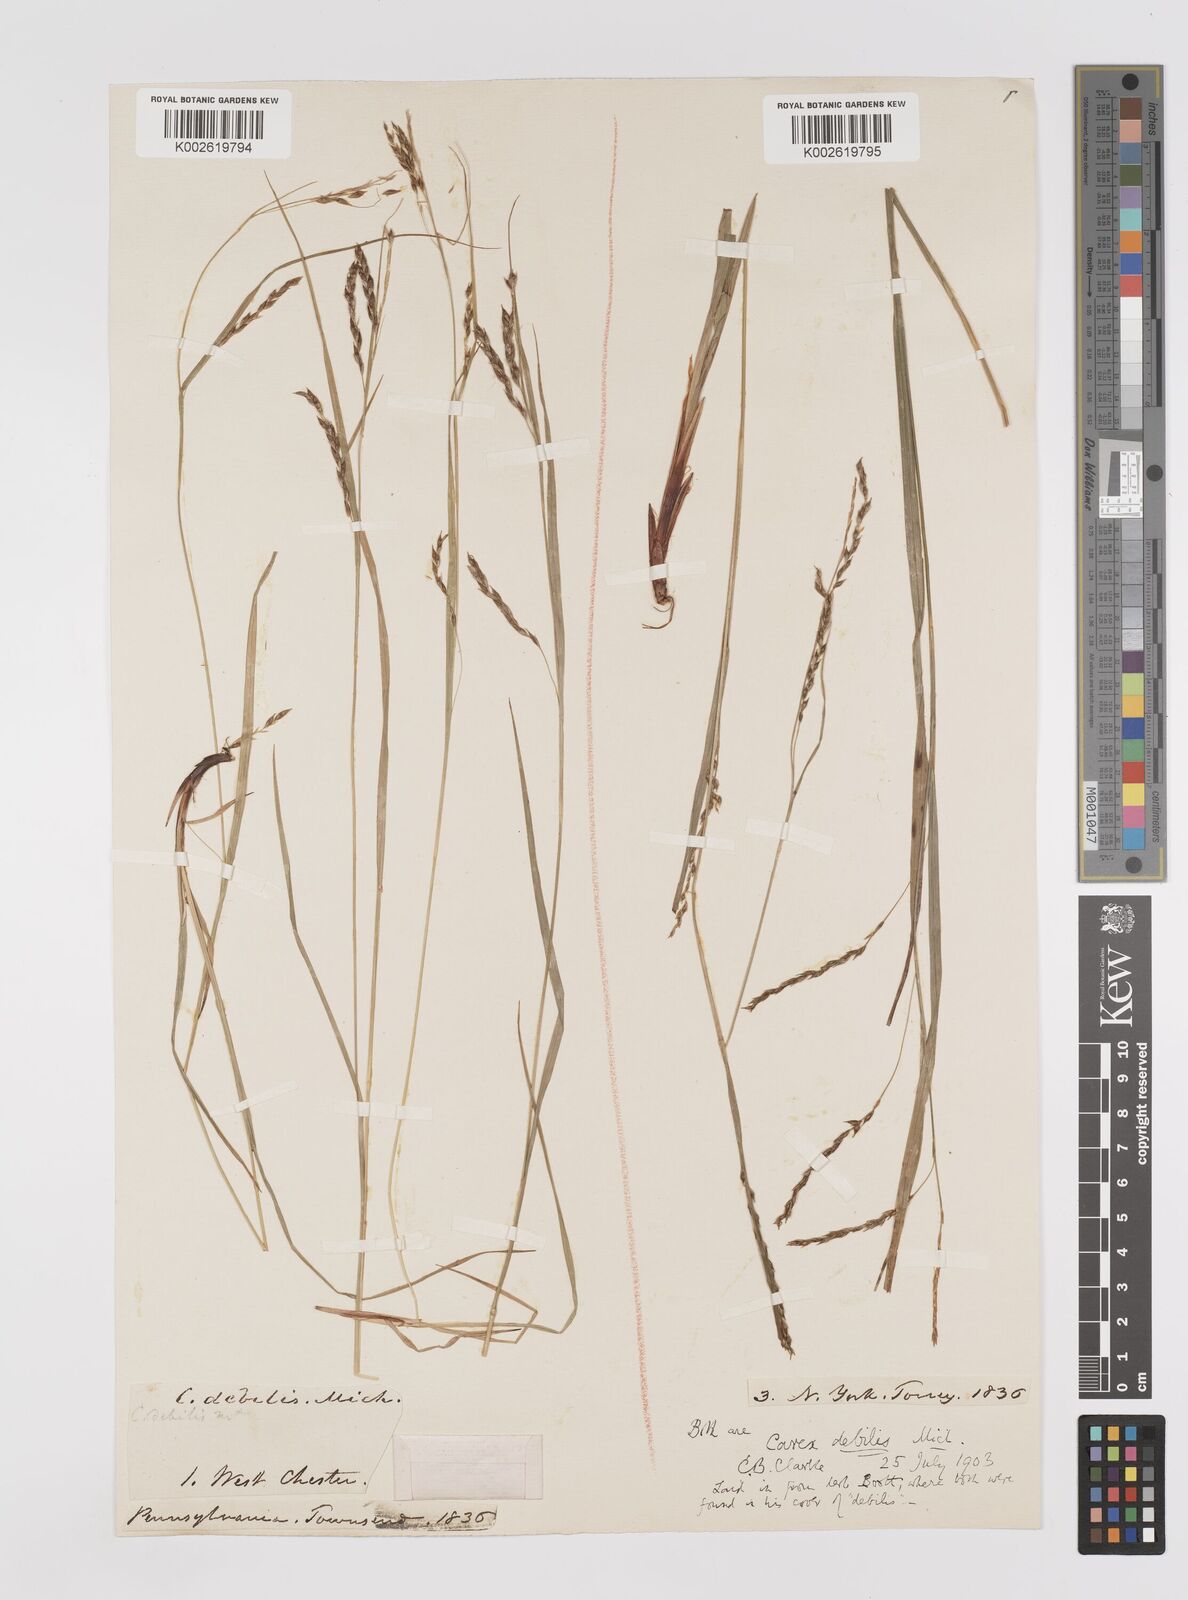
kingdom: Plantae
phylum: Tracheophyta
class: Liliopsida
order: Poales
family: Cyperaceae
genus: Carex
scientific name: Carex debilis
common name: White-edge sedge
